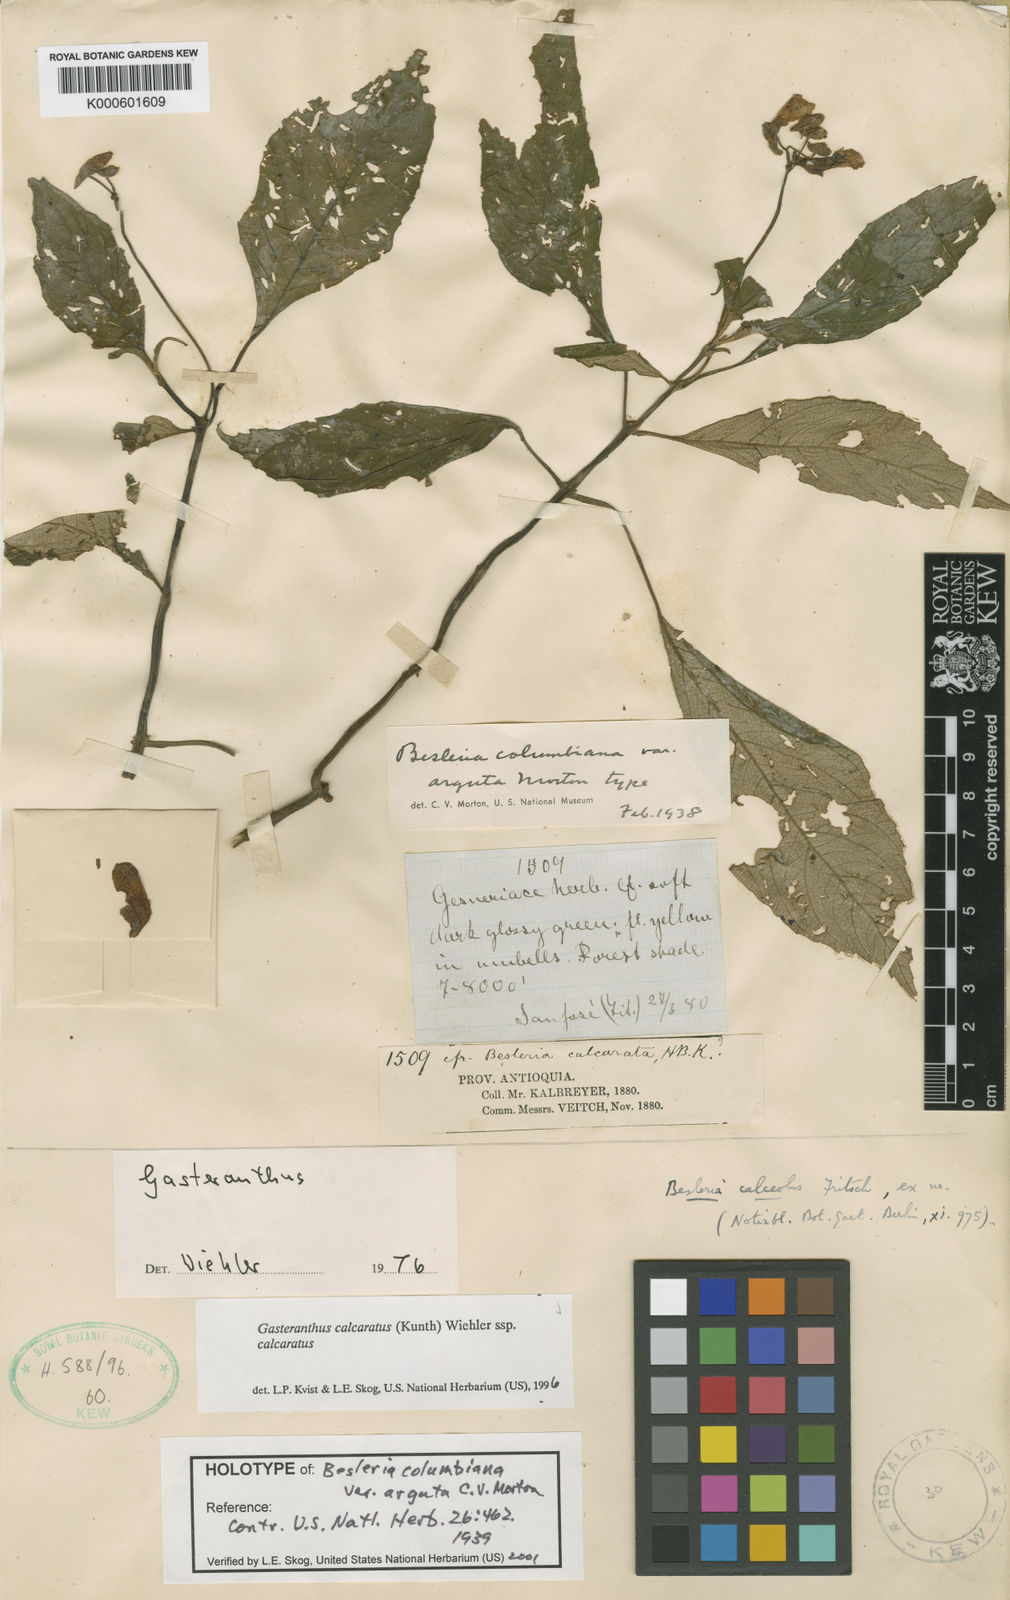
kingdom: Plantae
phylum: Tracheophyta
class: Magnoliopsida
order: Lamiales
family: Gesneriaceae
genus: Gasteranthus
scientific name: Gasteranthus
